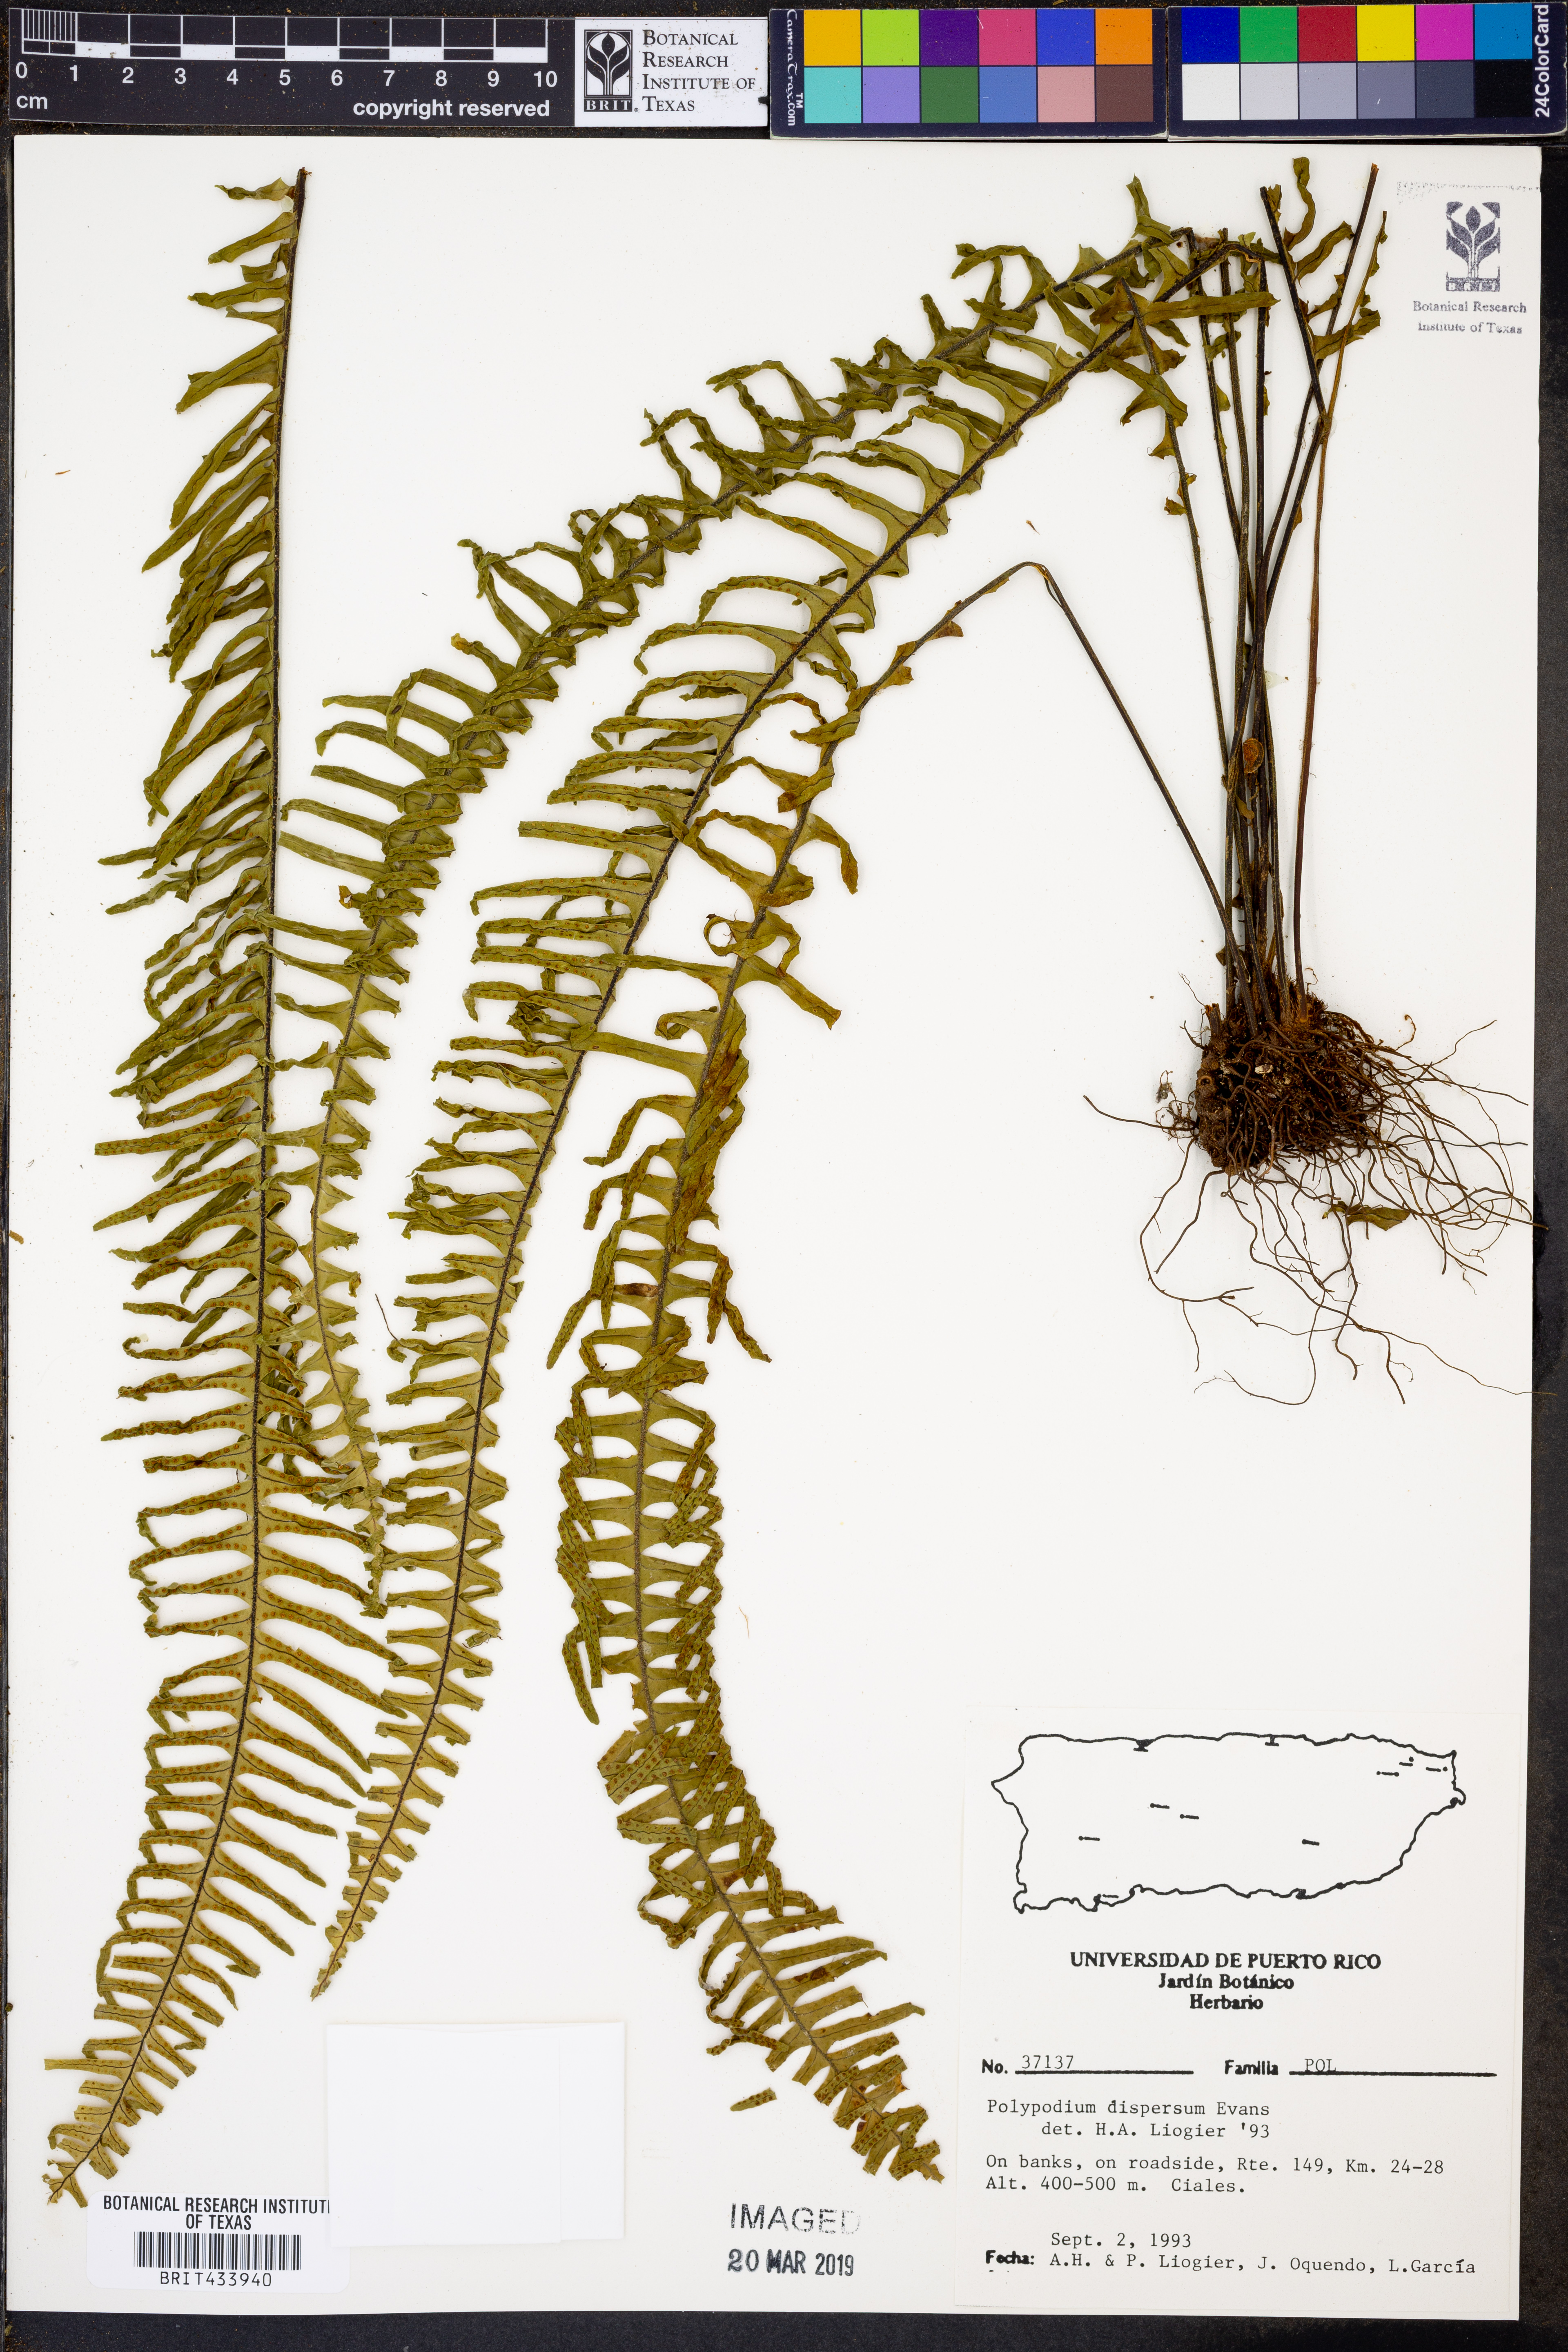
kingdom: Plantae
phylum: Tracheophyta
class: Polypodiopsida
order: Polypodiales
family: Polypodiaceae
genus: Pecluma
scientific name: Pecluma dispersa
